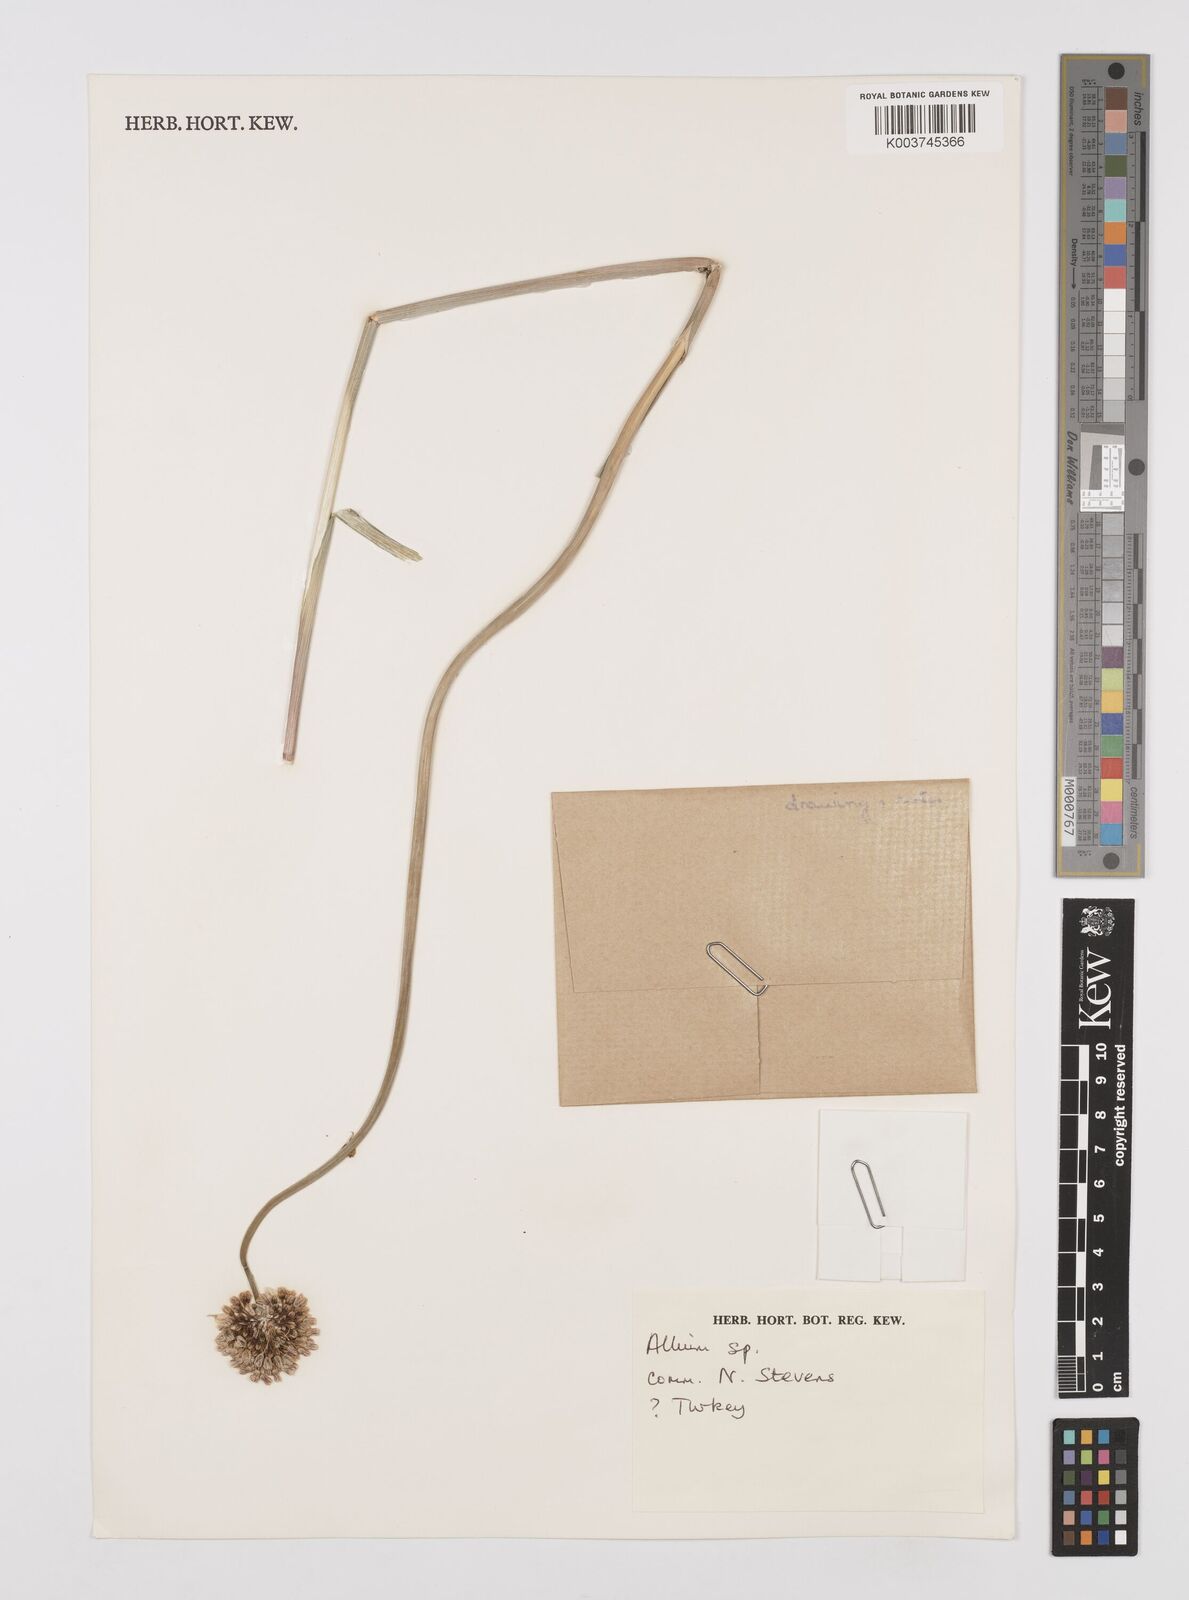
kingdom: Plantae
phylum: Tracheophyta
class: Liliopsida
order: Asparagales
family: Amaryllidaceae
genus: Allium
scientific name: Allium
